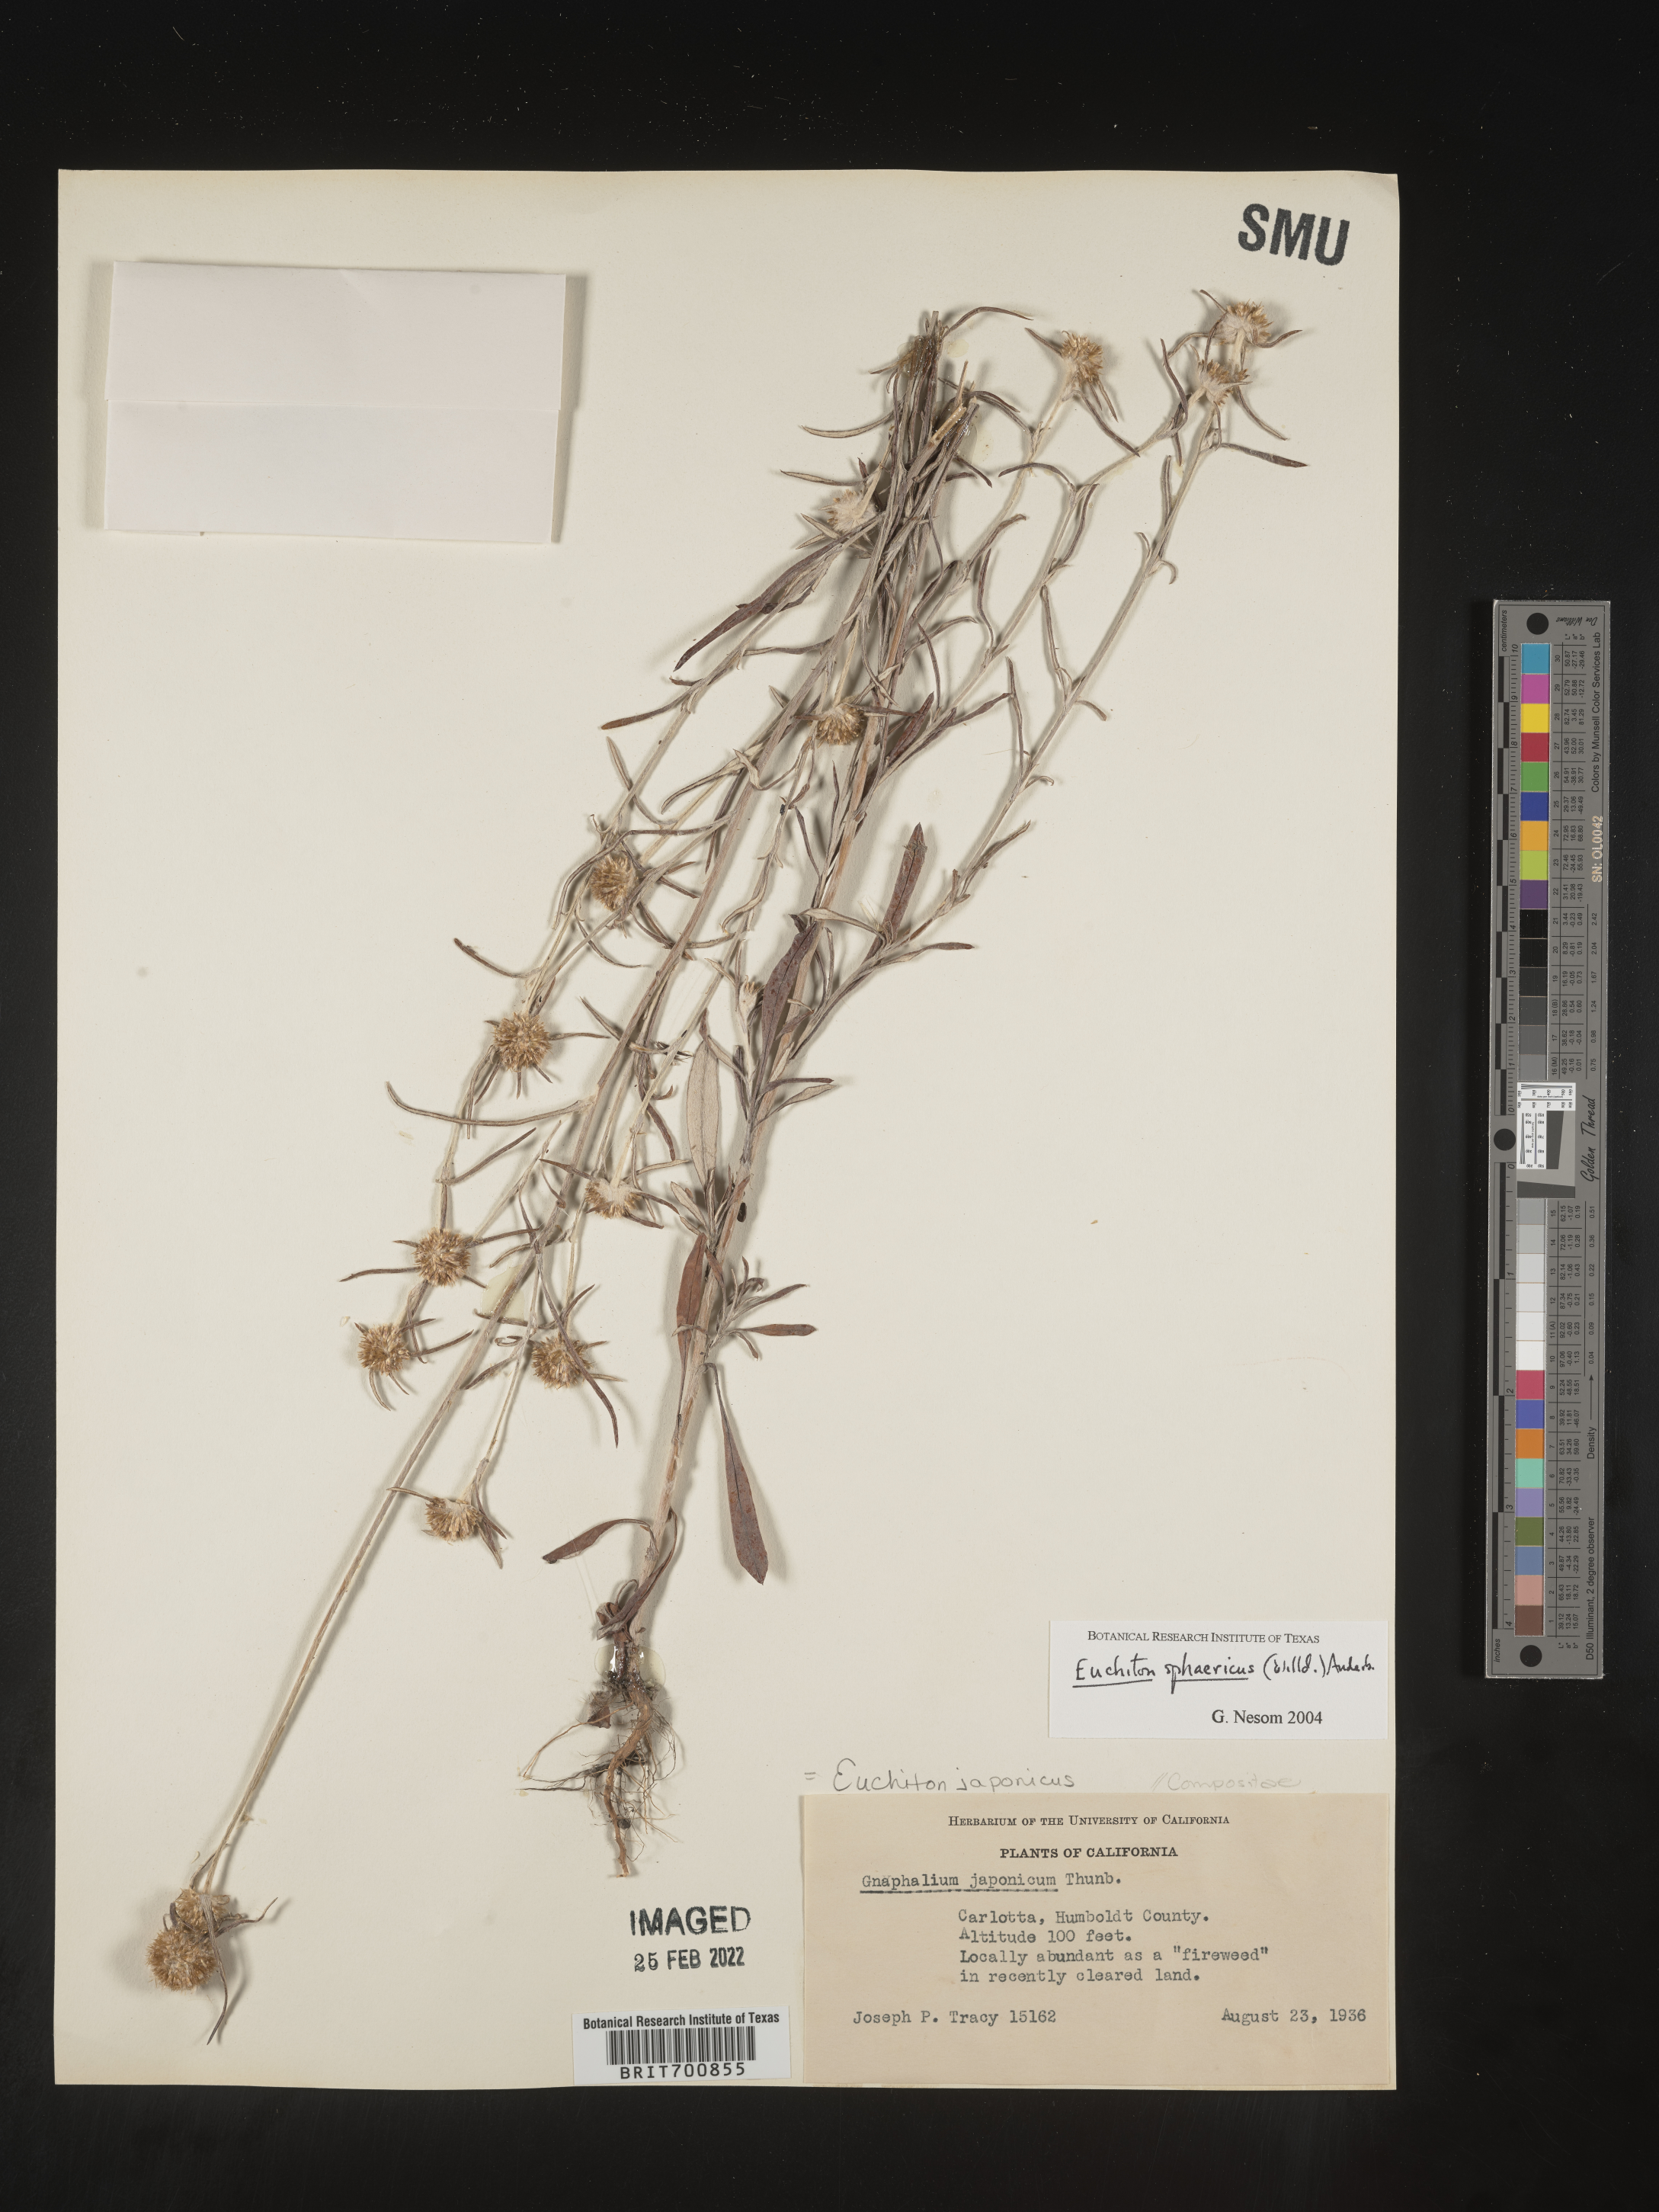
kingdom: Plantae
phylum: Tracheophyta
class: Magnoliopsida
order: Asterales
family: Asteraceae
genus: Euchiton
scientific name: Euchiton
